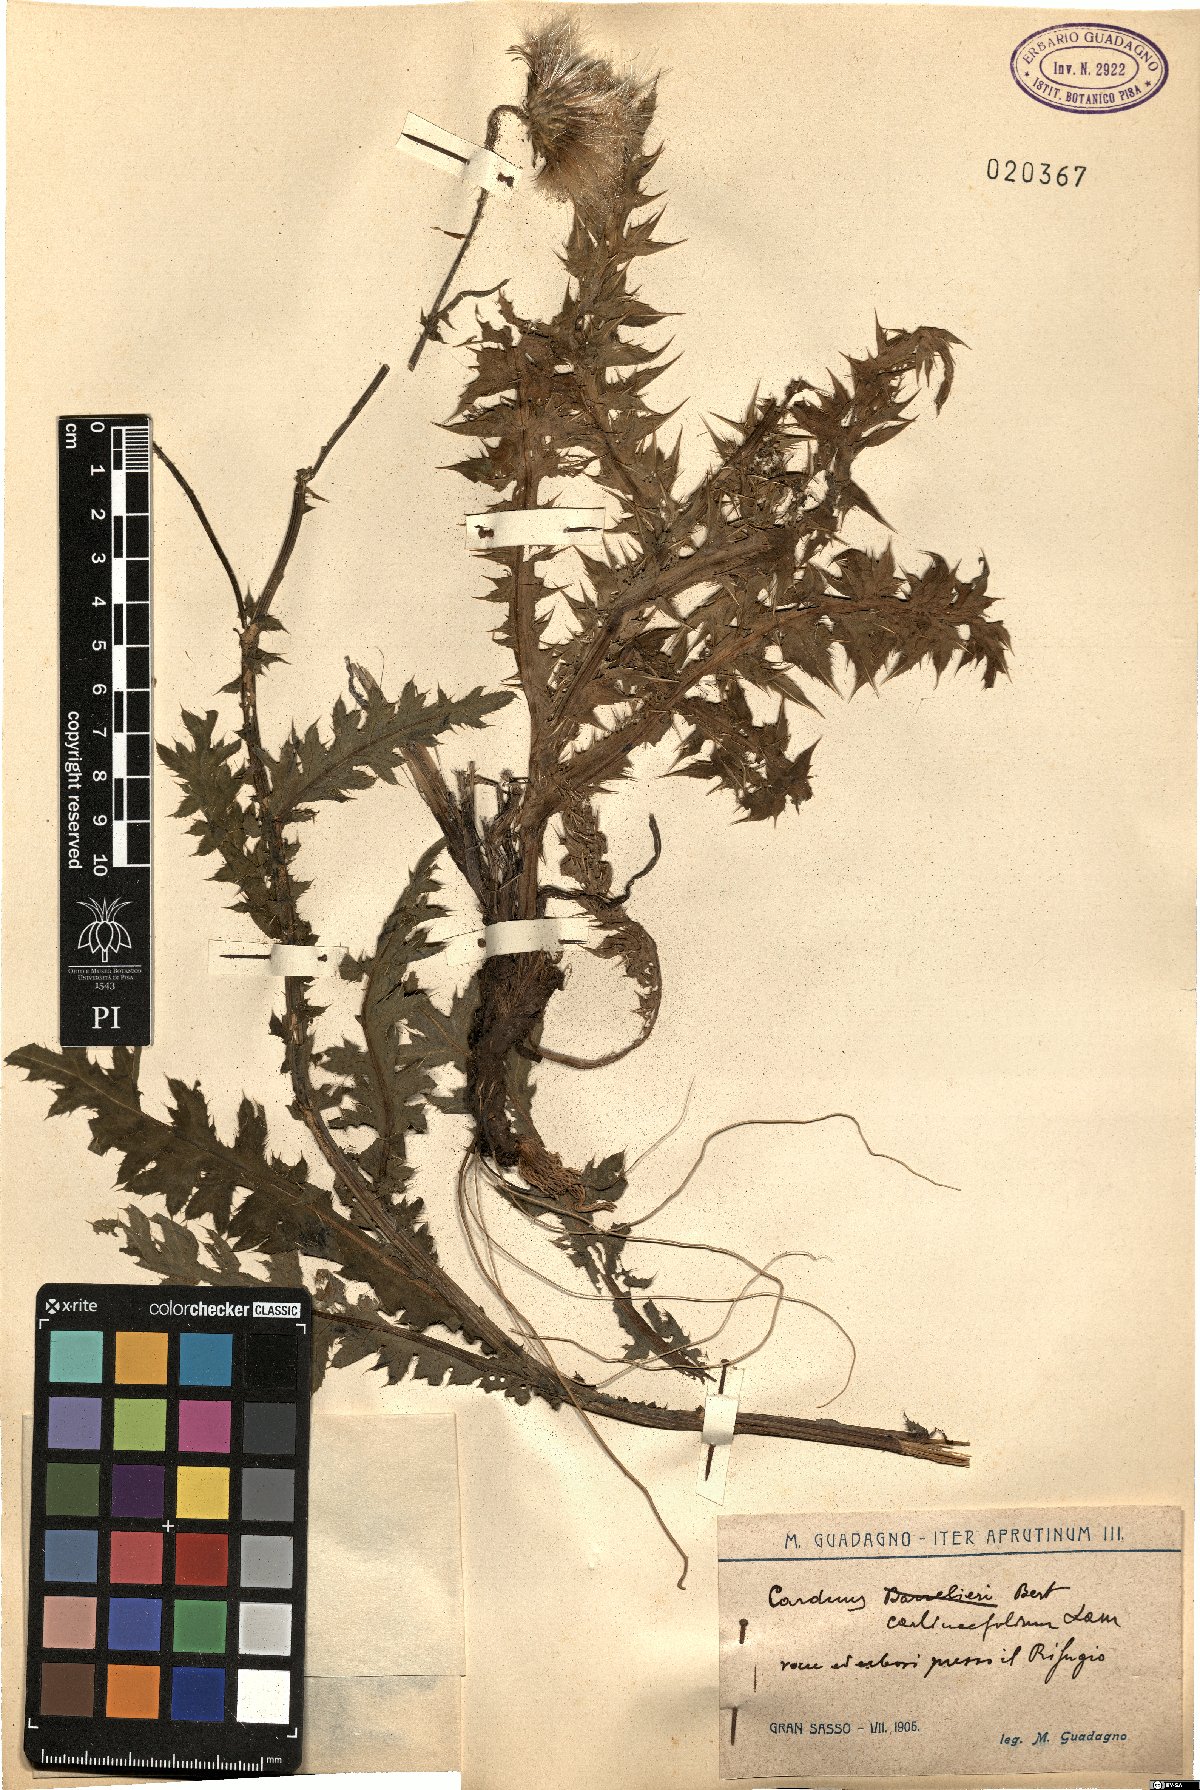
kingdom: Plantae
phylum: Tracheophyta
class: Magnoliopsida
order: Asterales
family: Asteraceae
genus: Carduus
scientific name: Carduus carlinifolius
